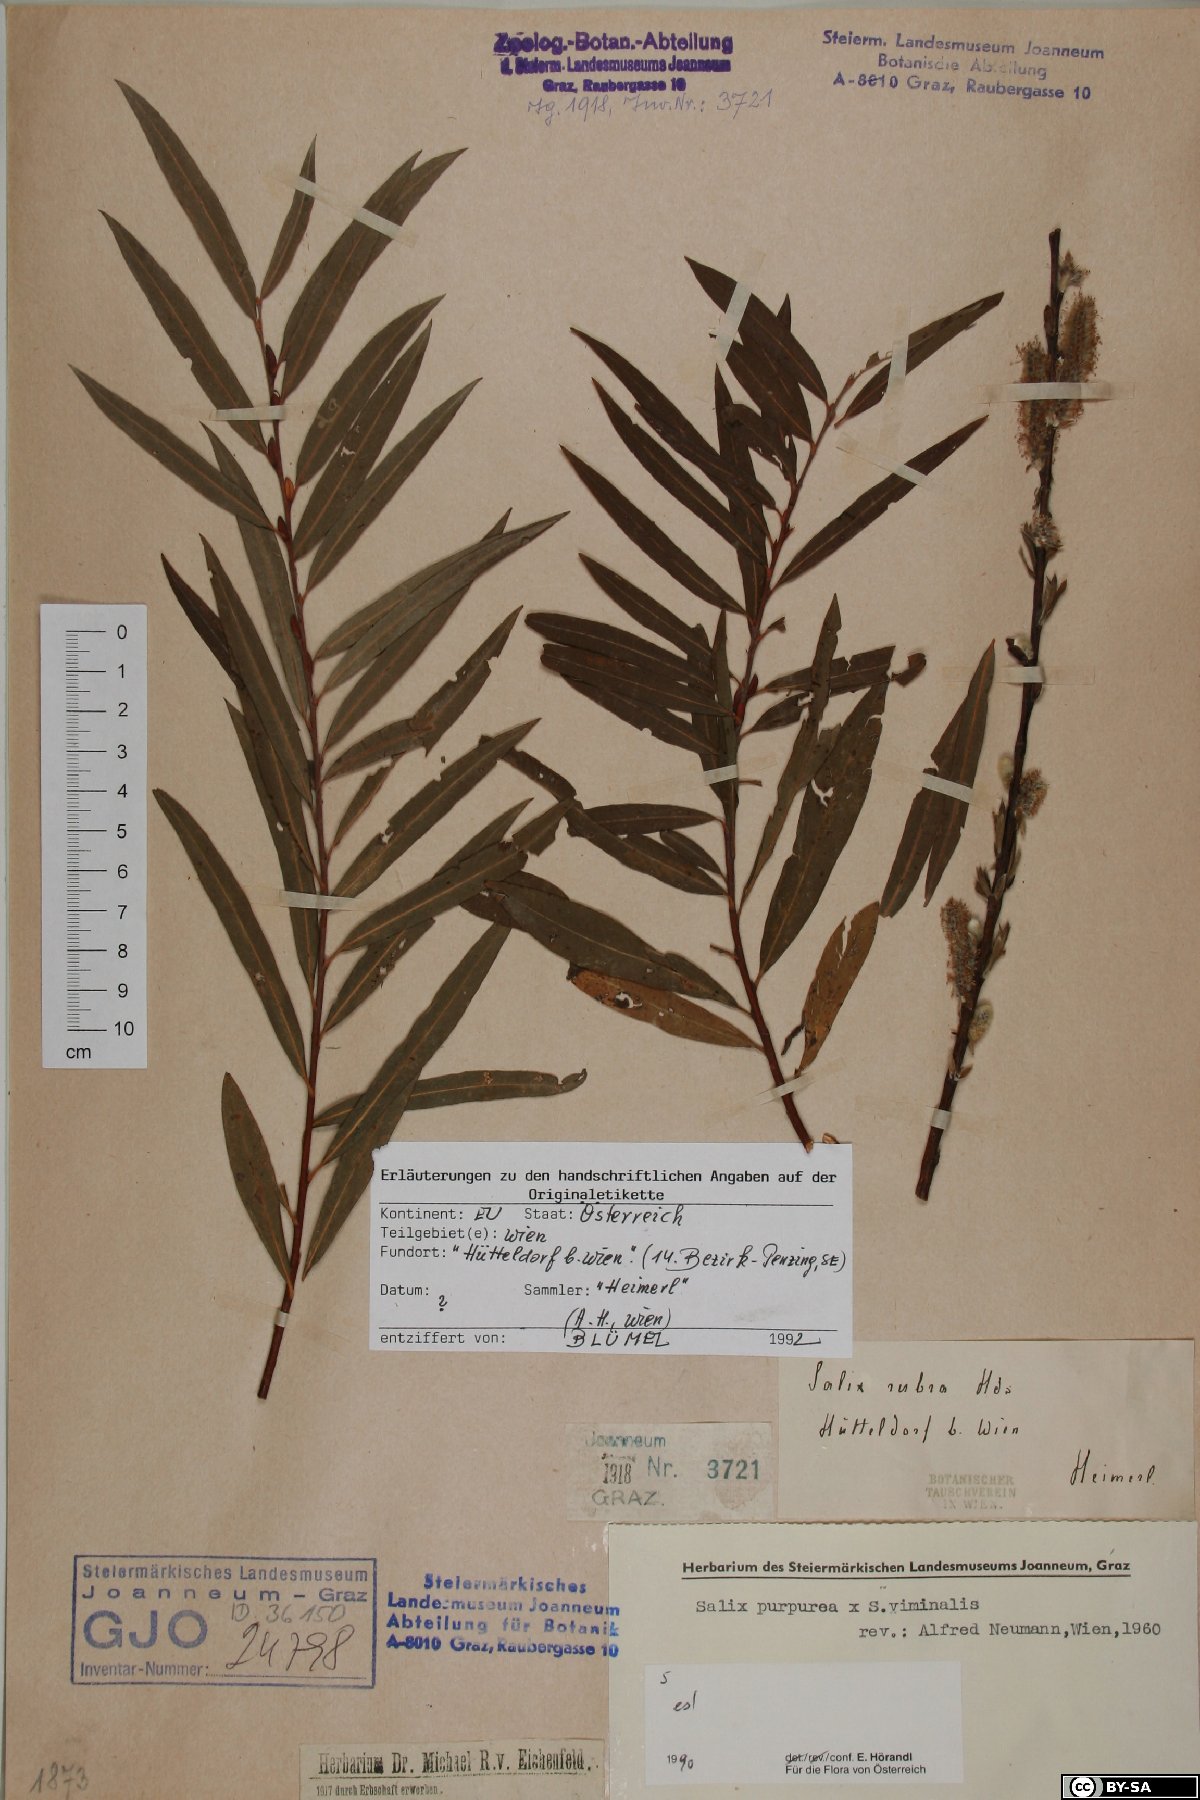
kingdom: Plantae
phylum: Tracheophyta
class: Magnoliopsida
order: Malpighiales
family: Salicaceae
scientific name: Salicaceae
